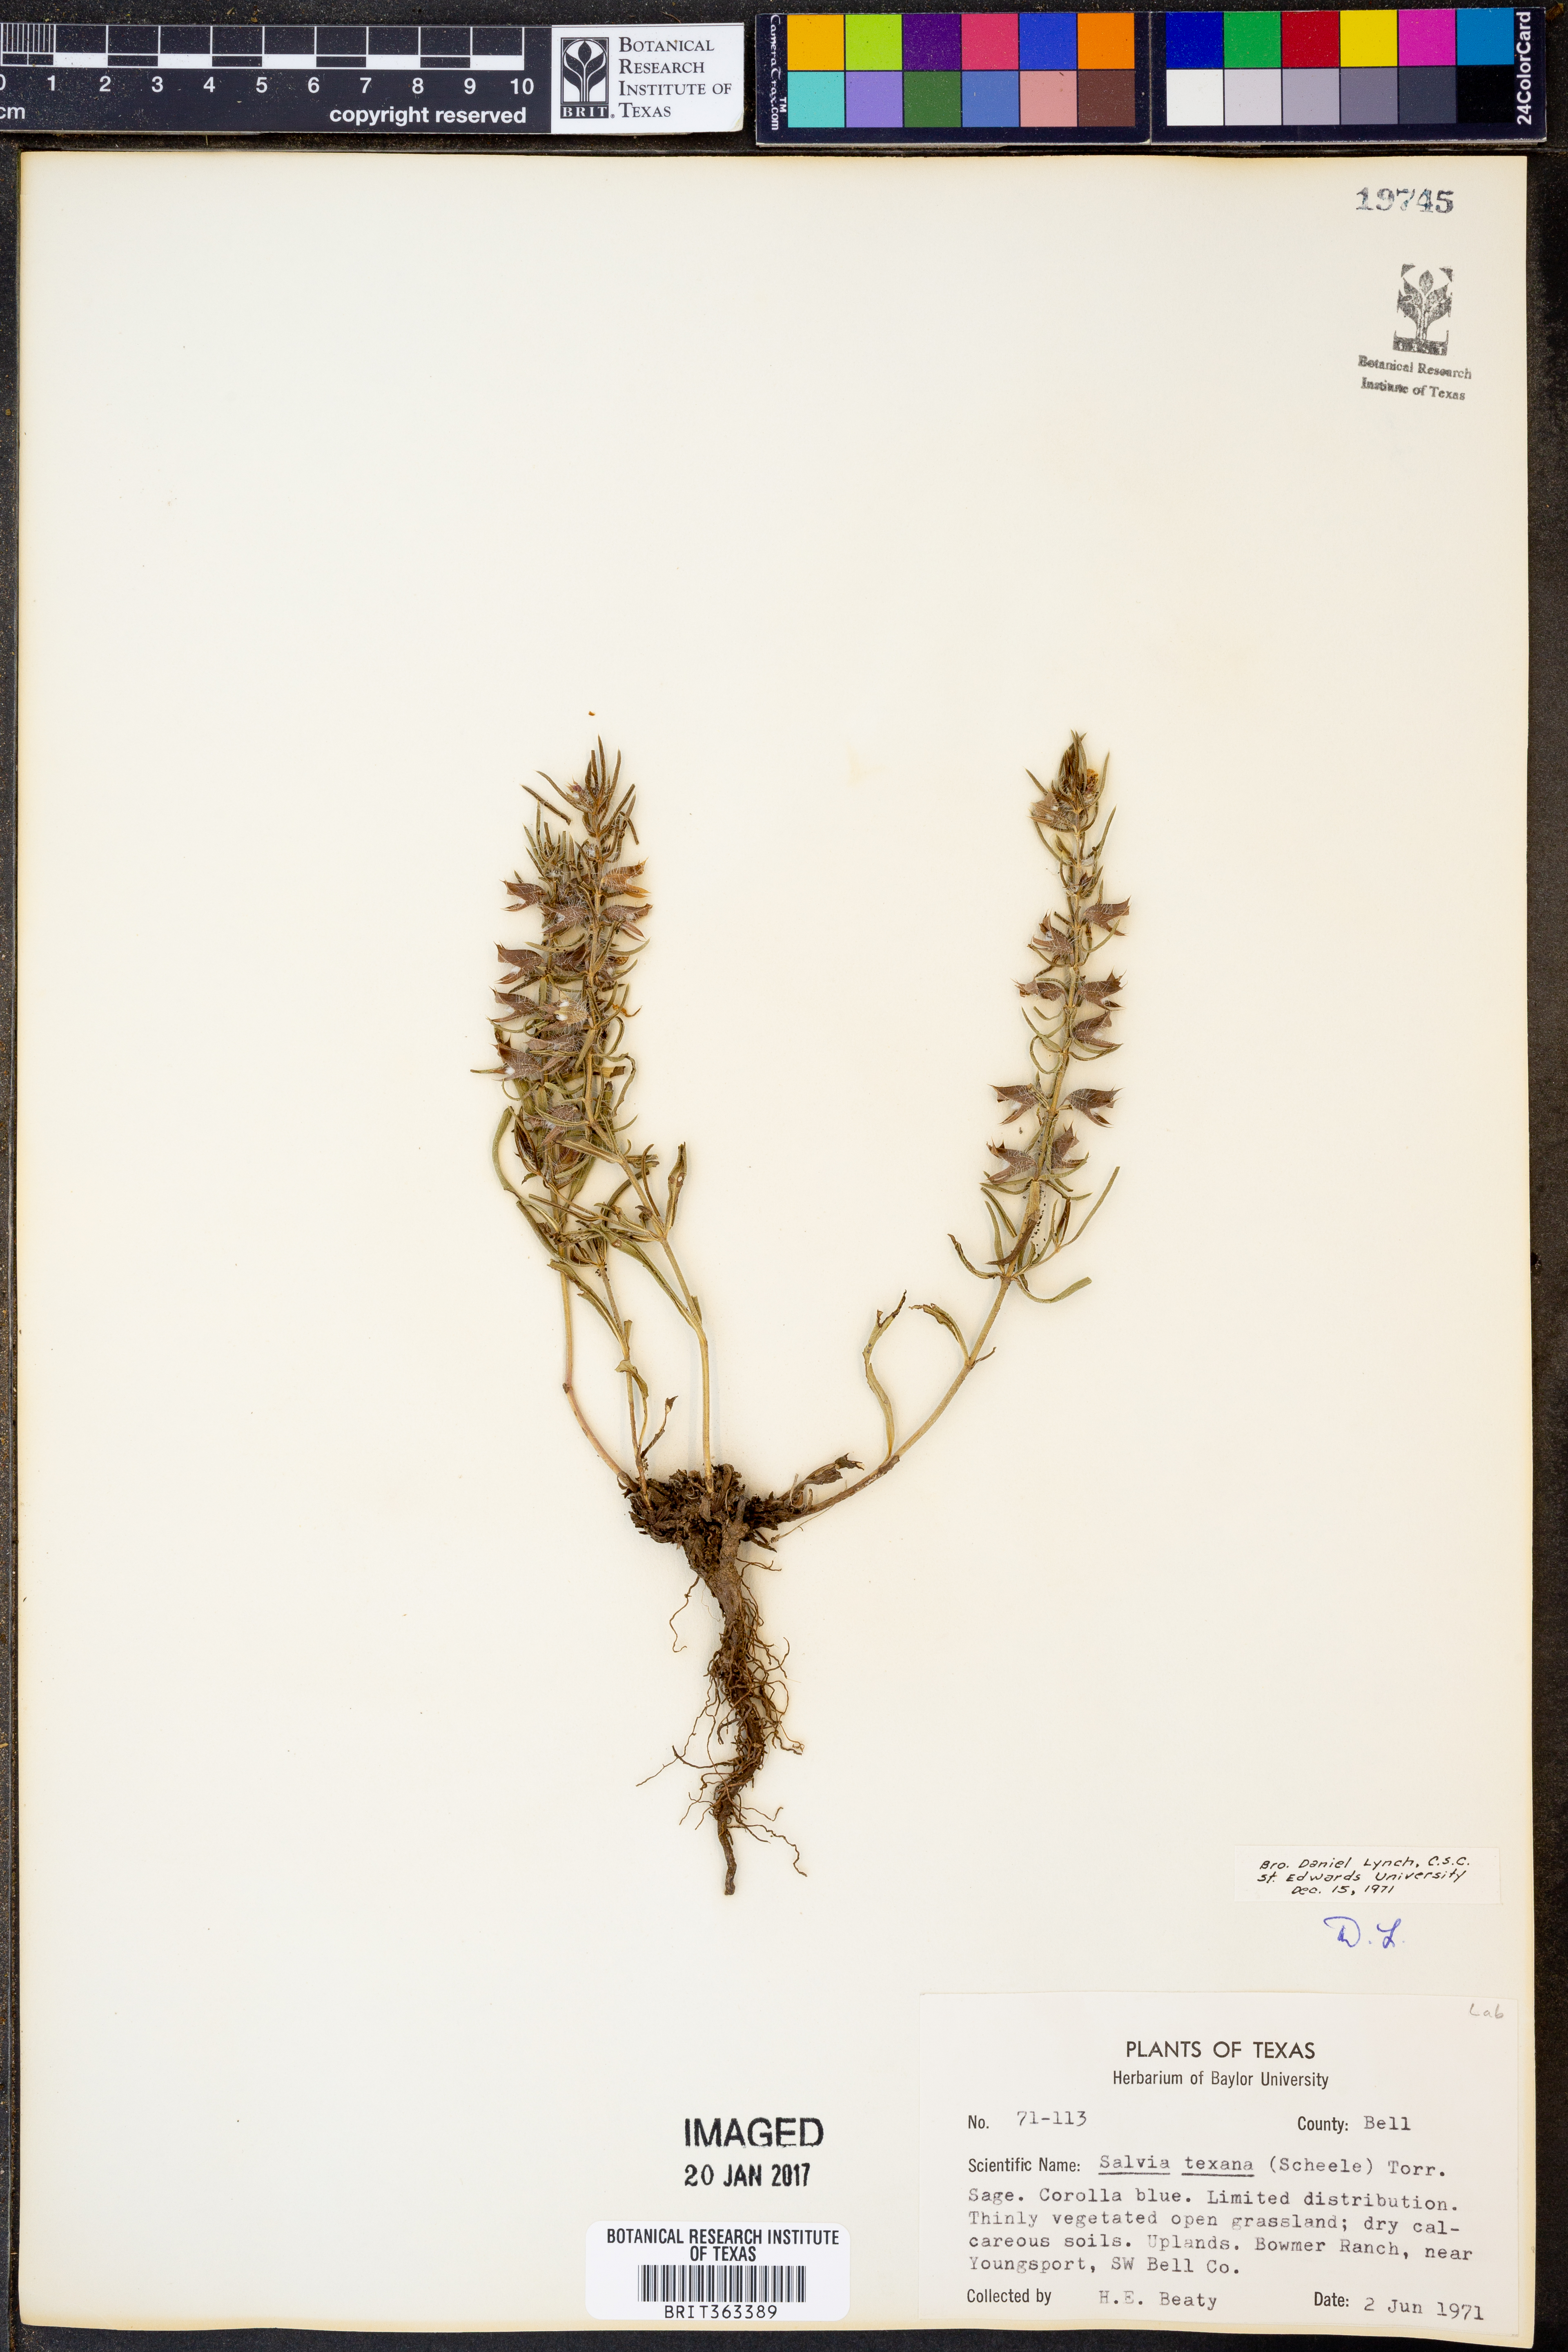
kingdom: Plantae
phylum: Tracheophyta
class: Magnoliopsida
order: Lamiales
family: Lamiaceae
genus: Salvia
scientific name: Salvia texana
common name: Texas sage
